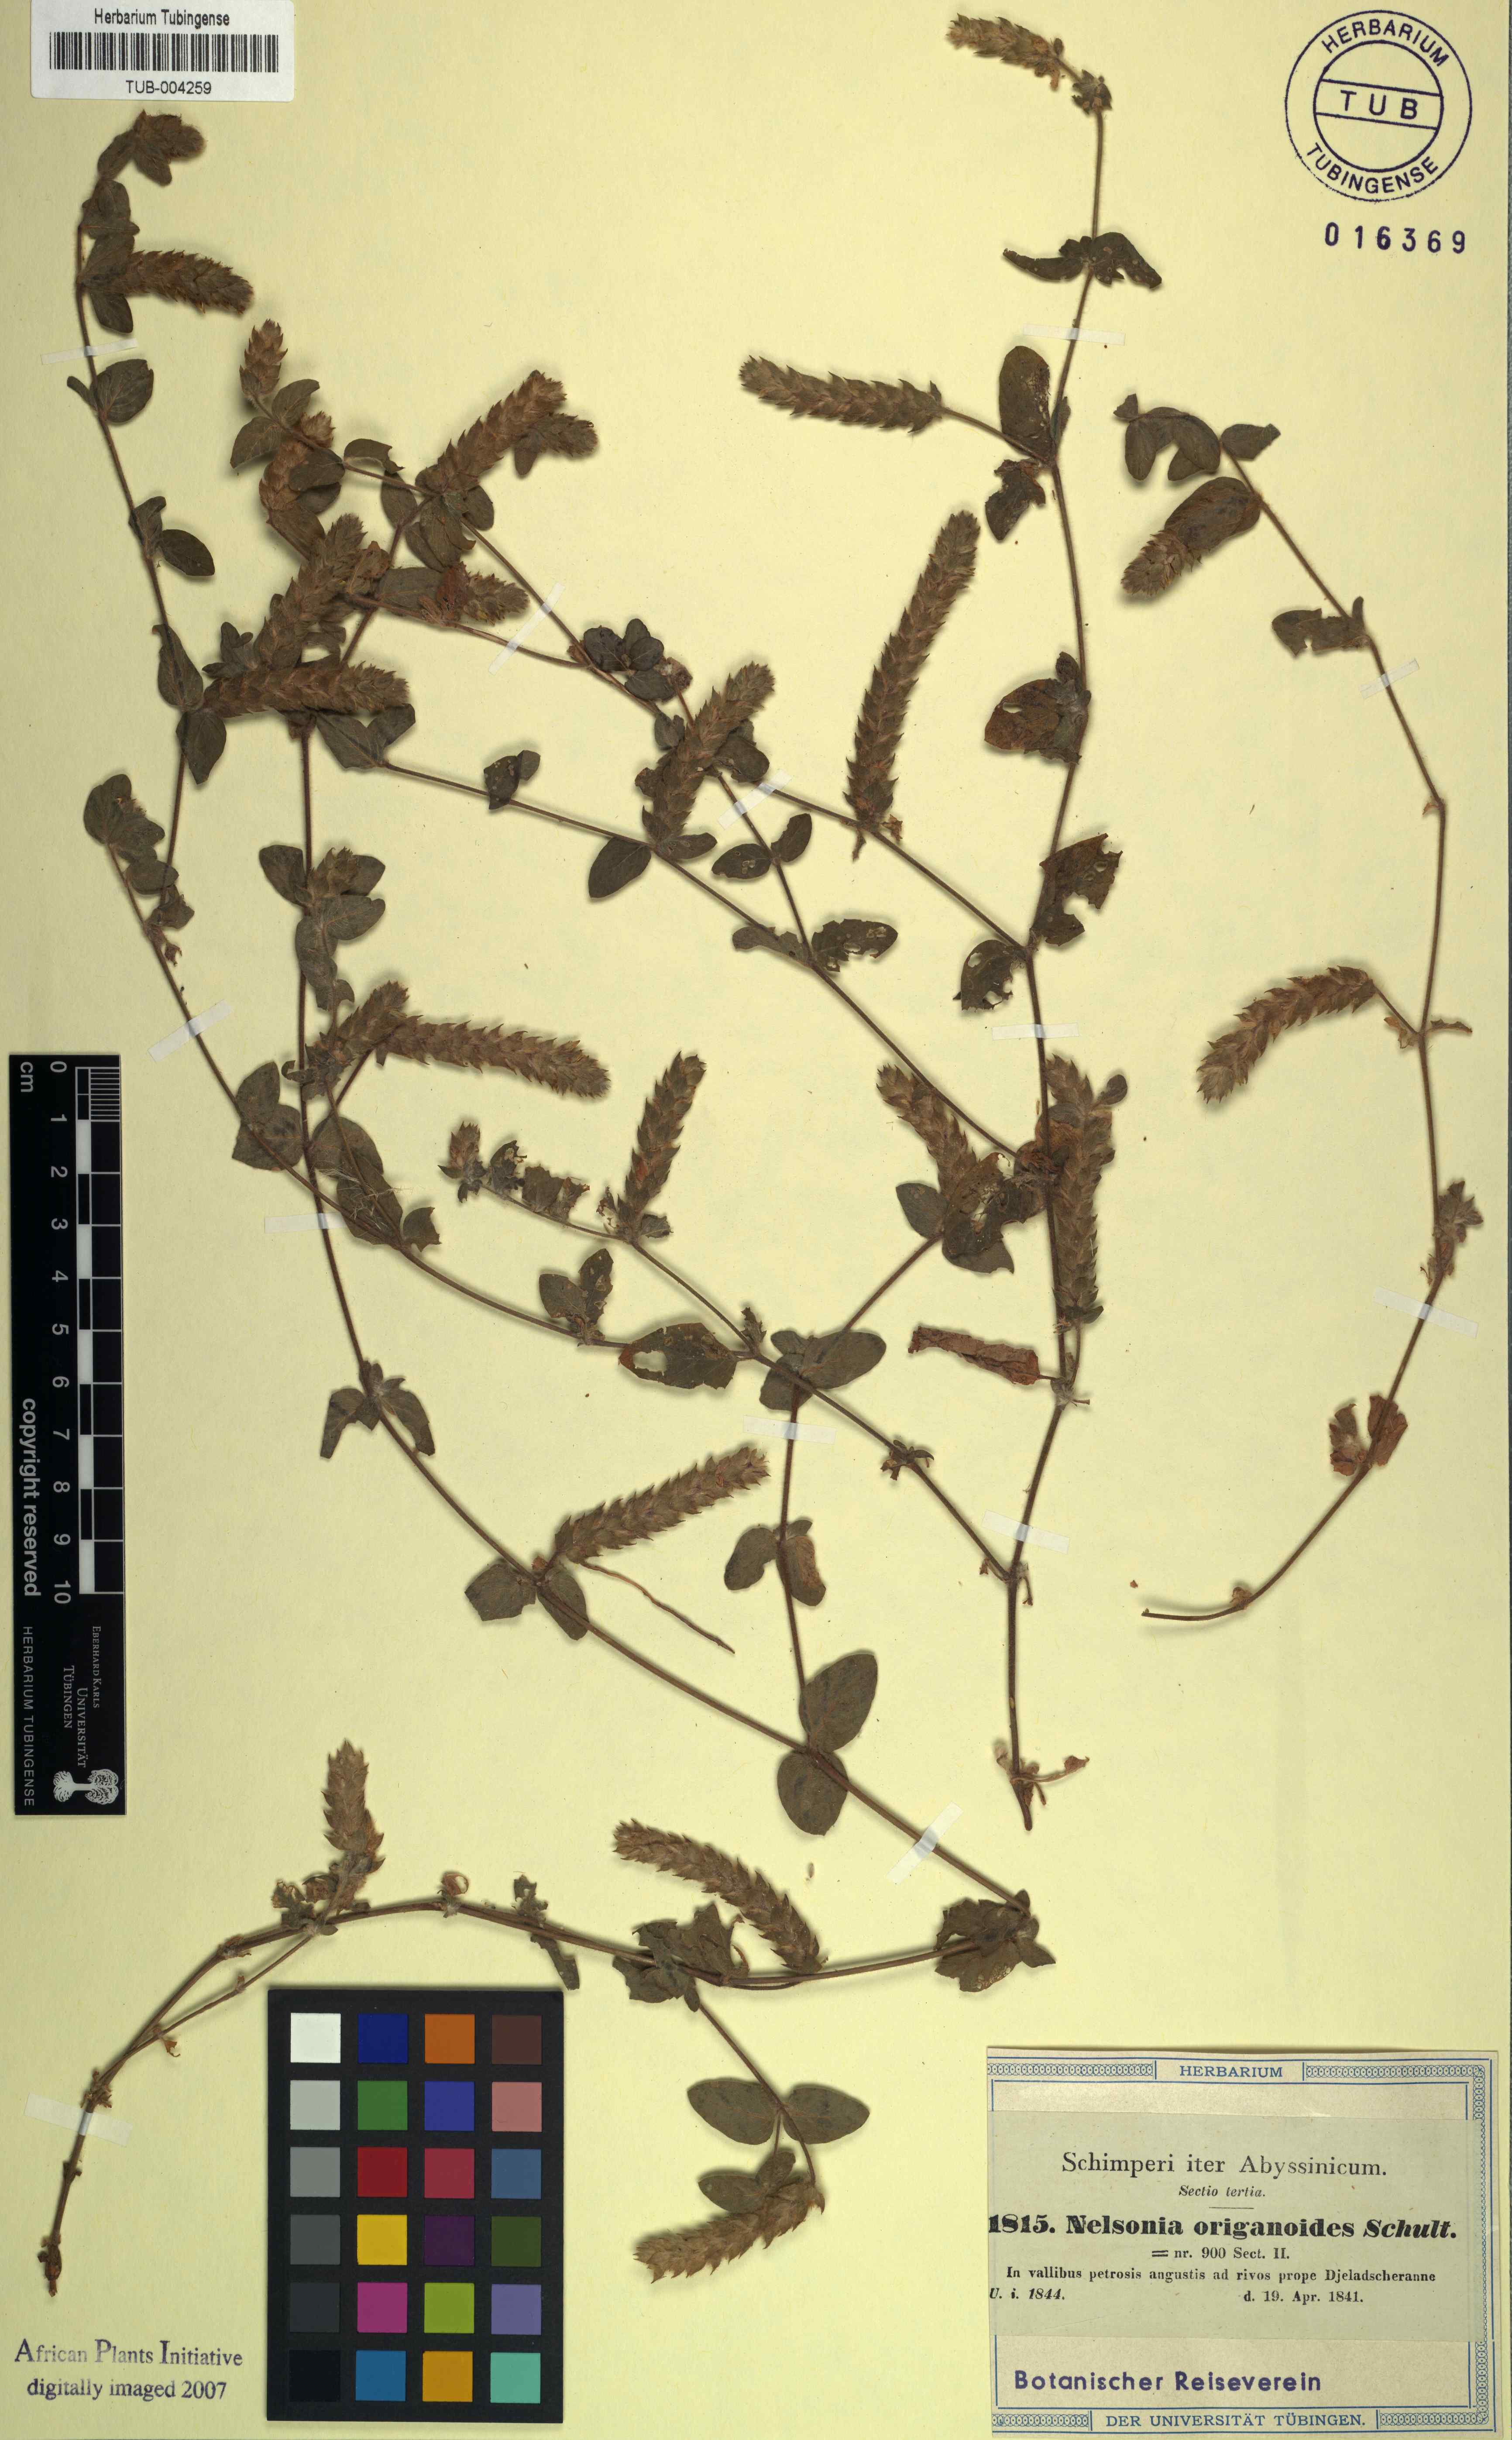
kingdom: Plantae
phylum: Tracheophyta
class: Magnoliopsida
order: Lamiales
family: Acanthaceae
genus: Nelsonia
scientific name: Nelsonia canescens
